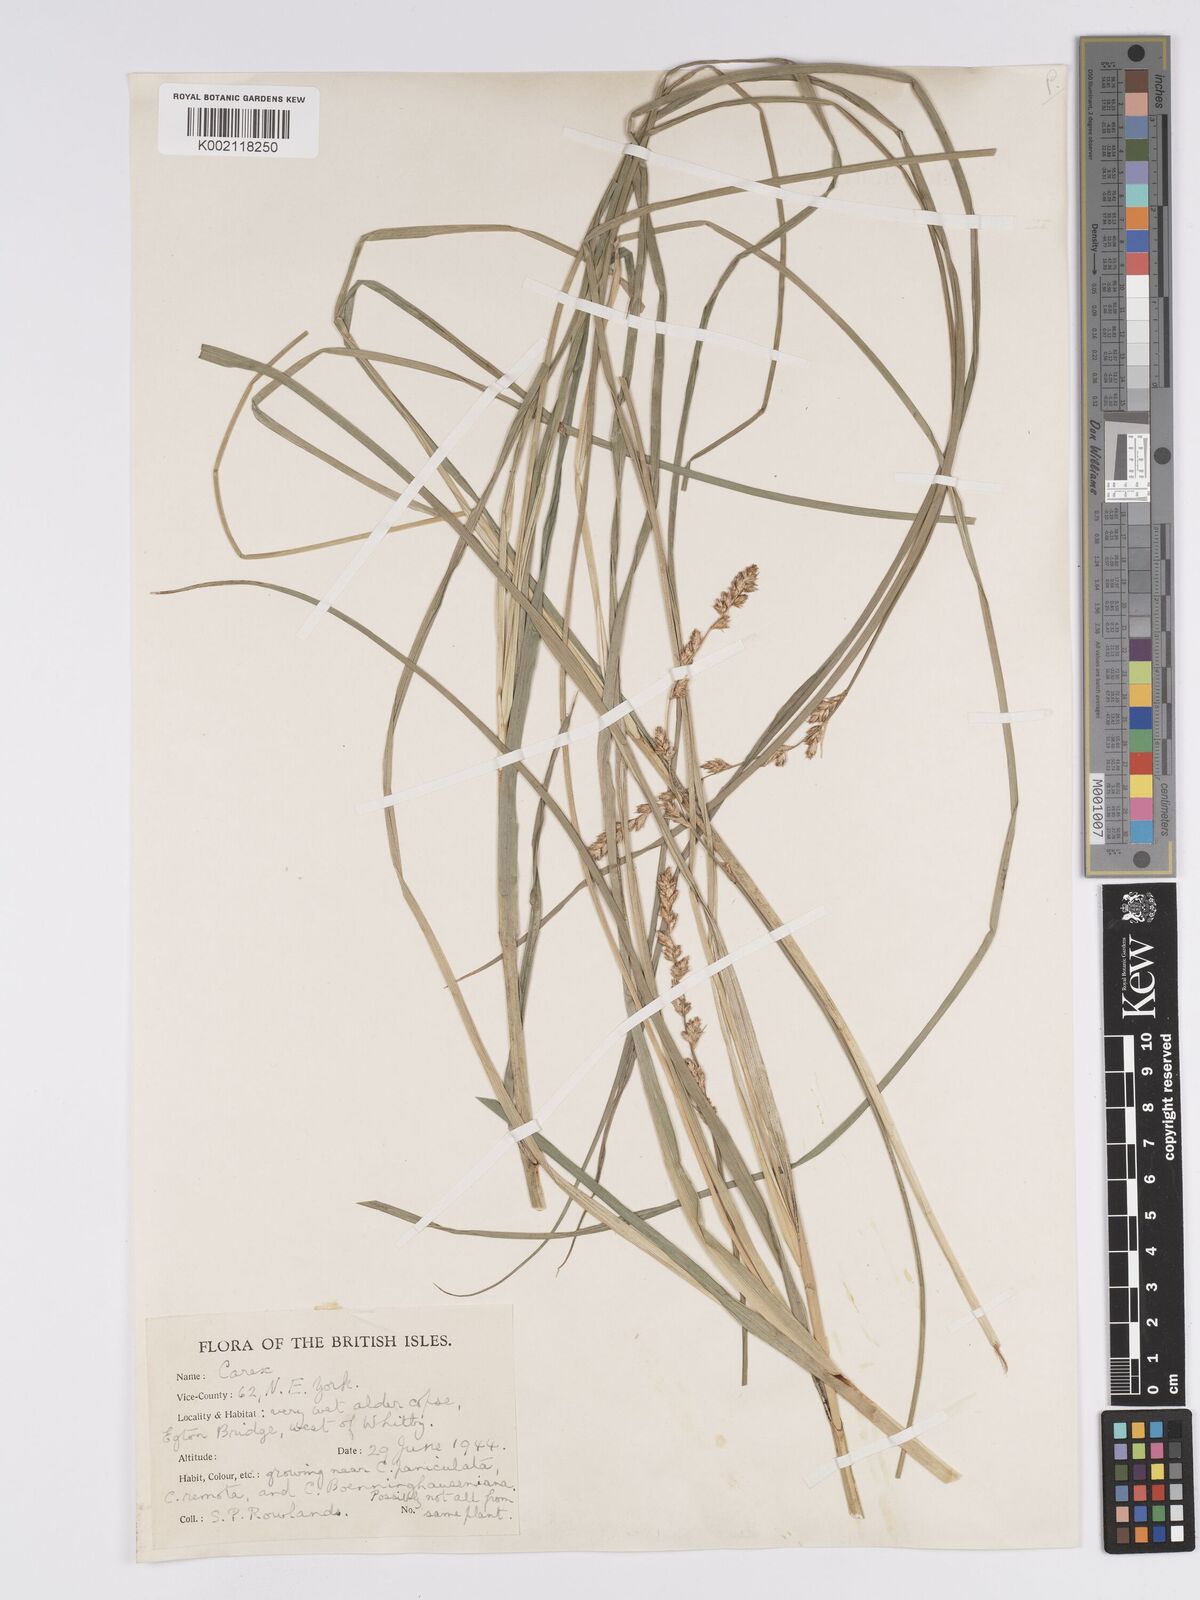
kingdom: Plantae
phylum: Tracheophyta
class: Liliopsida
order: Poales
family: Cyperaceae
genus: Carex
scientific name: Carex paniculata
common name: Greater tussock-sedge
